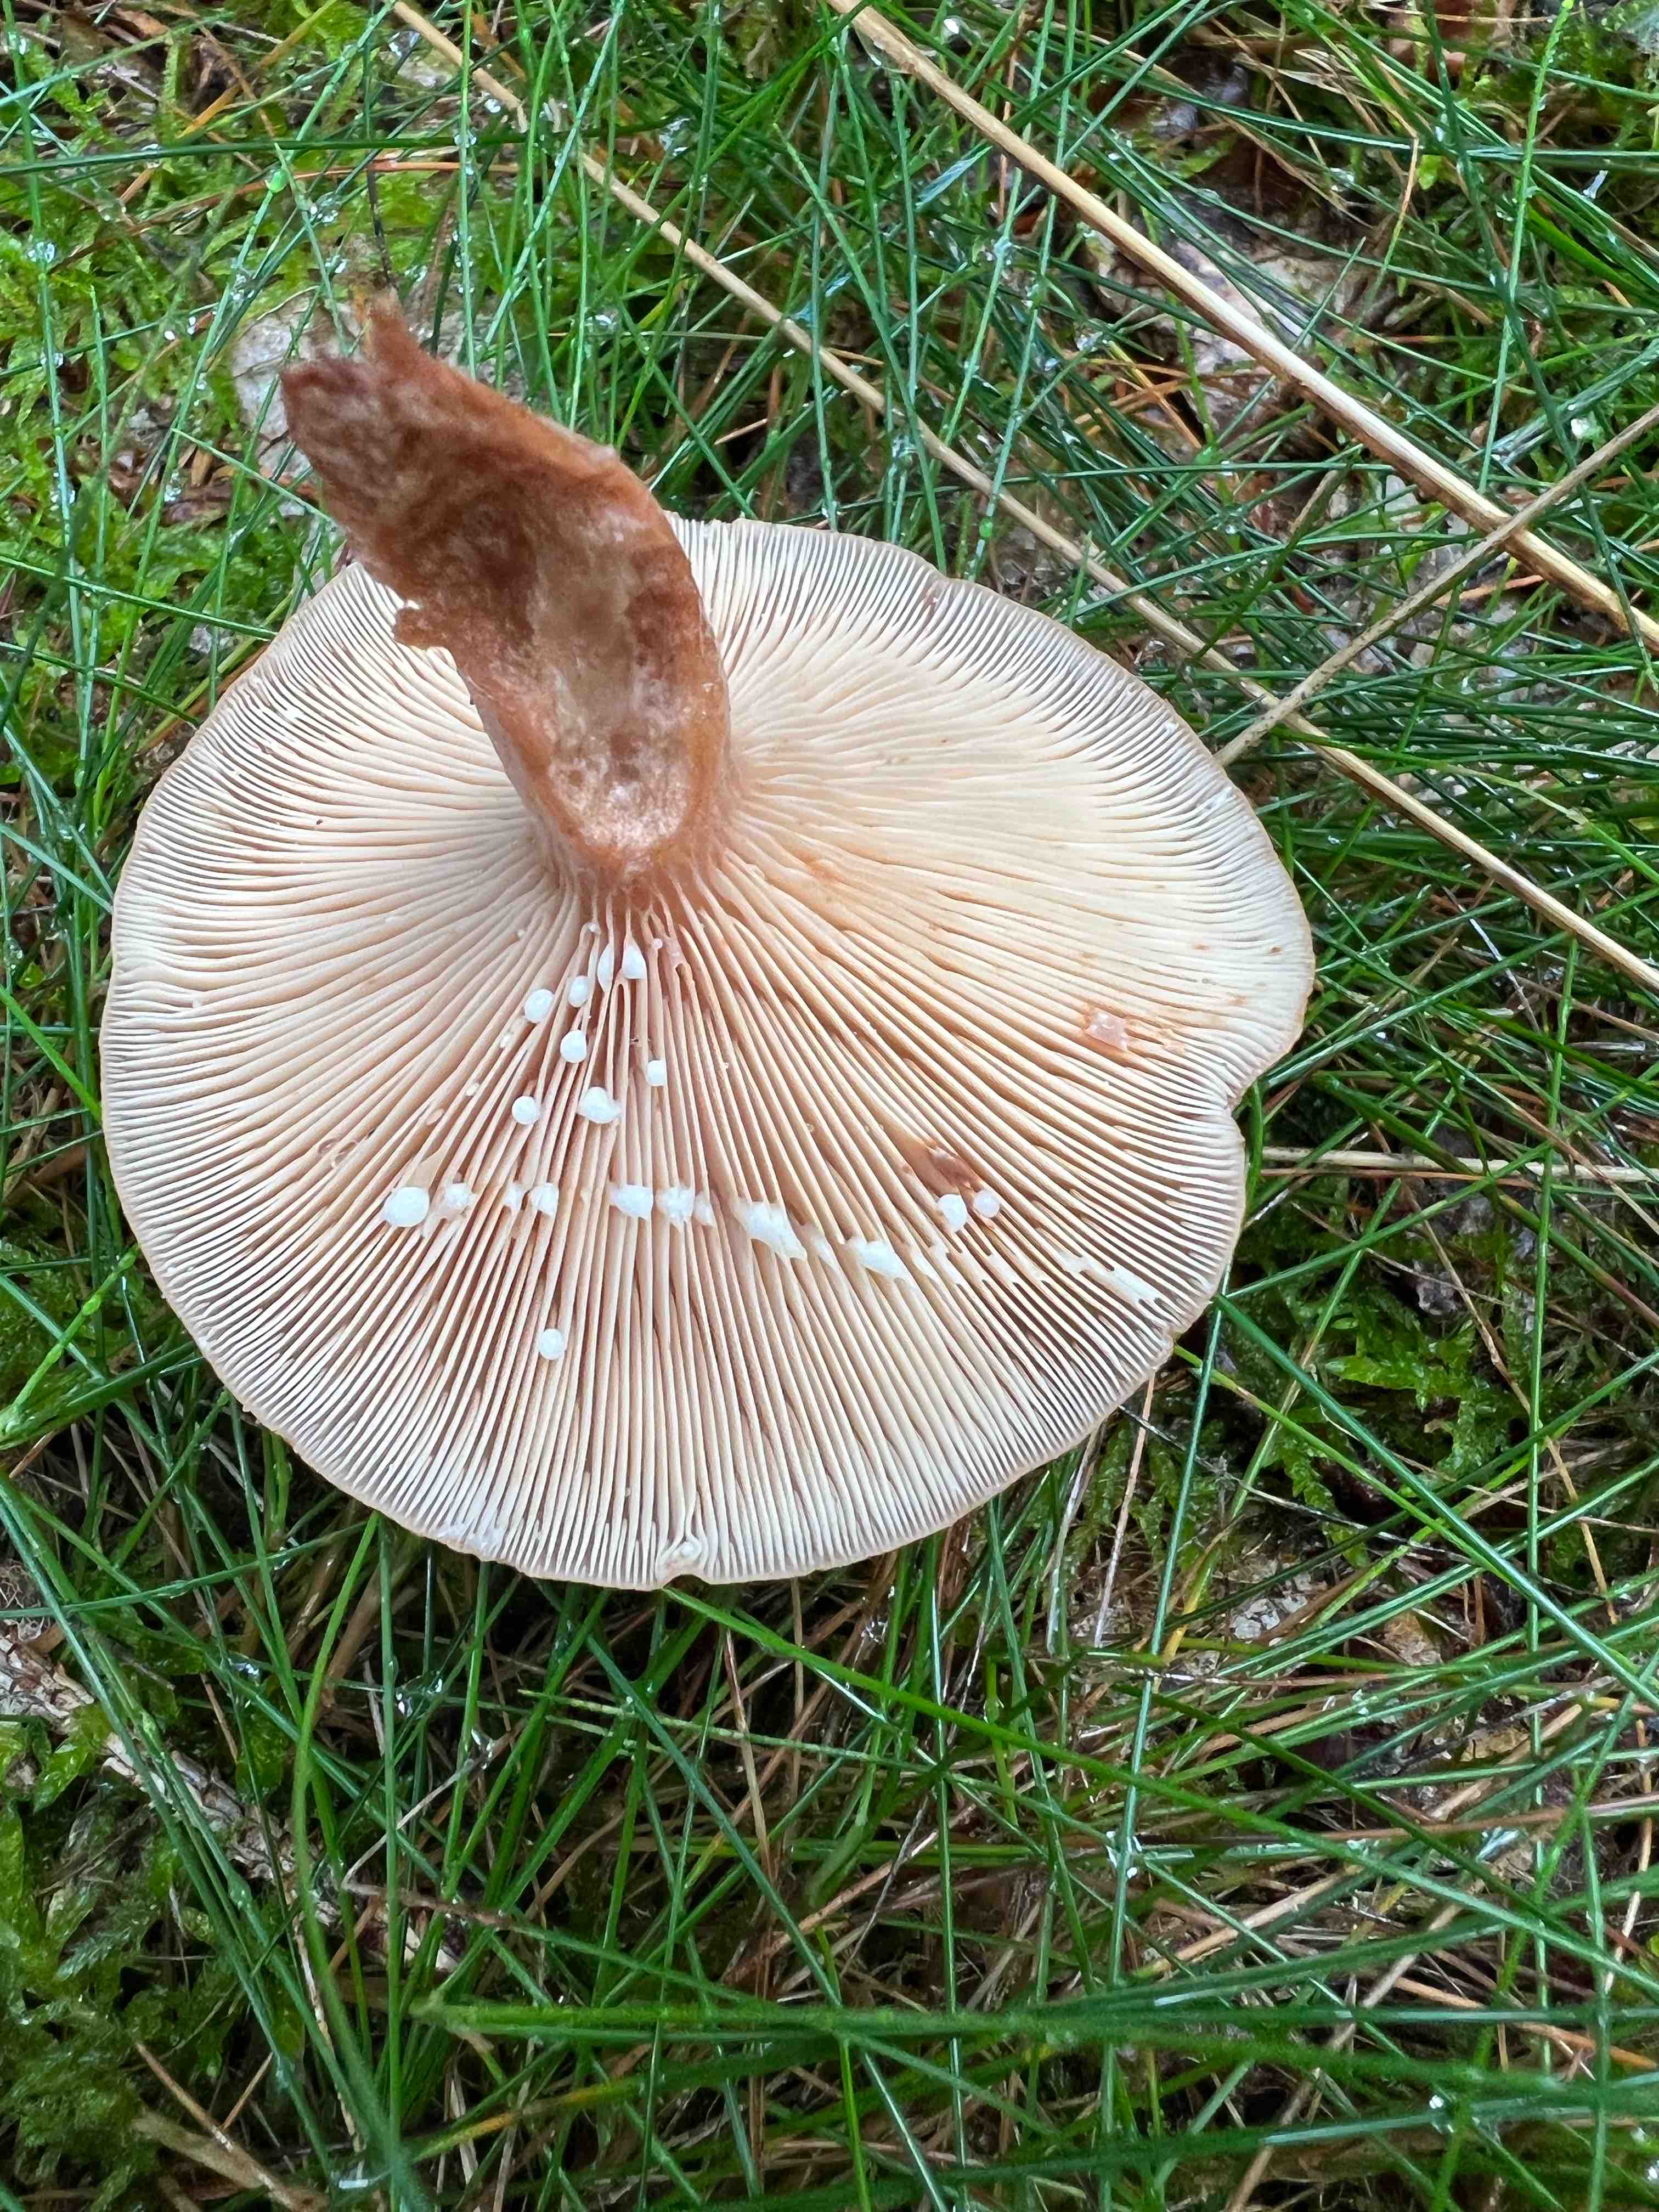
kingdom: Fungi
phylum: Basidiomycota
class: Agaricomycetes
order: Russulales
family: Russulaceae
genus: Lactarius
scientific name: Lactarius quietus
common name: ege-mælkehat
